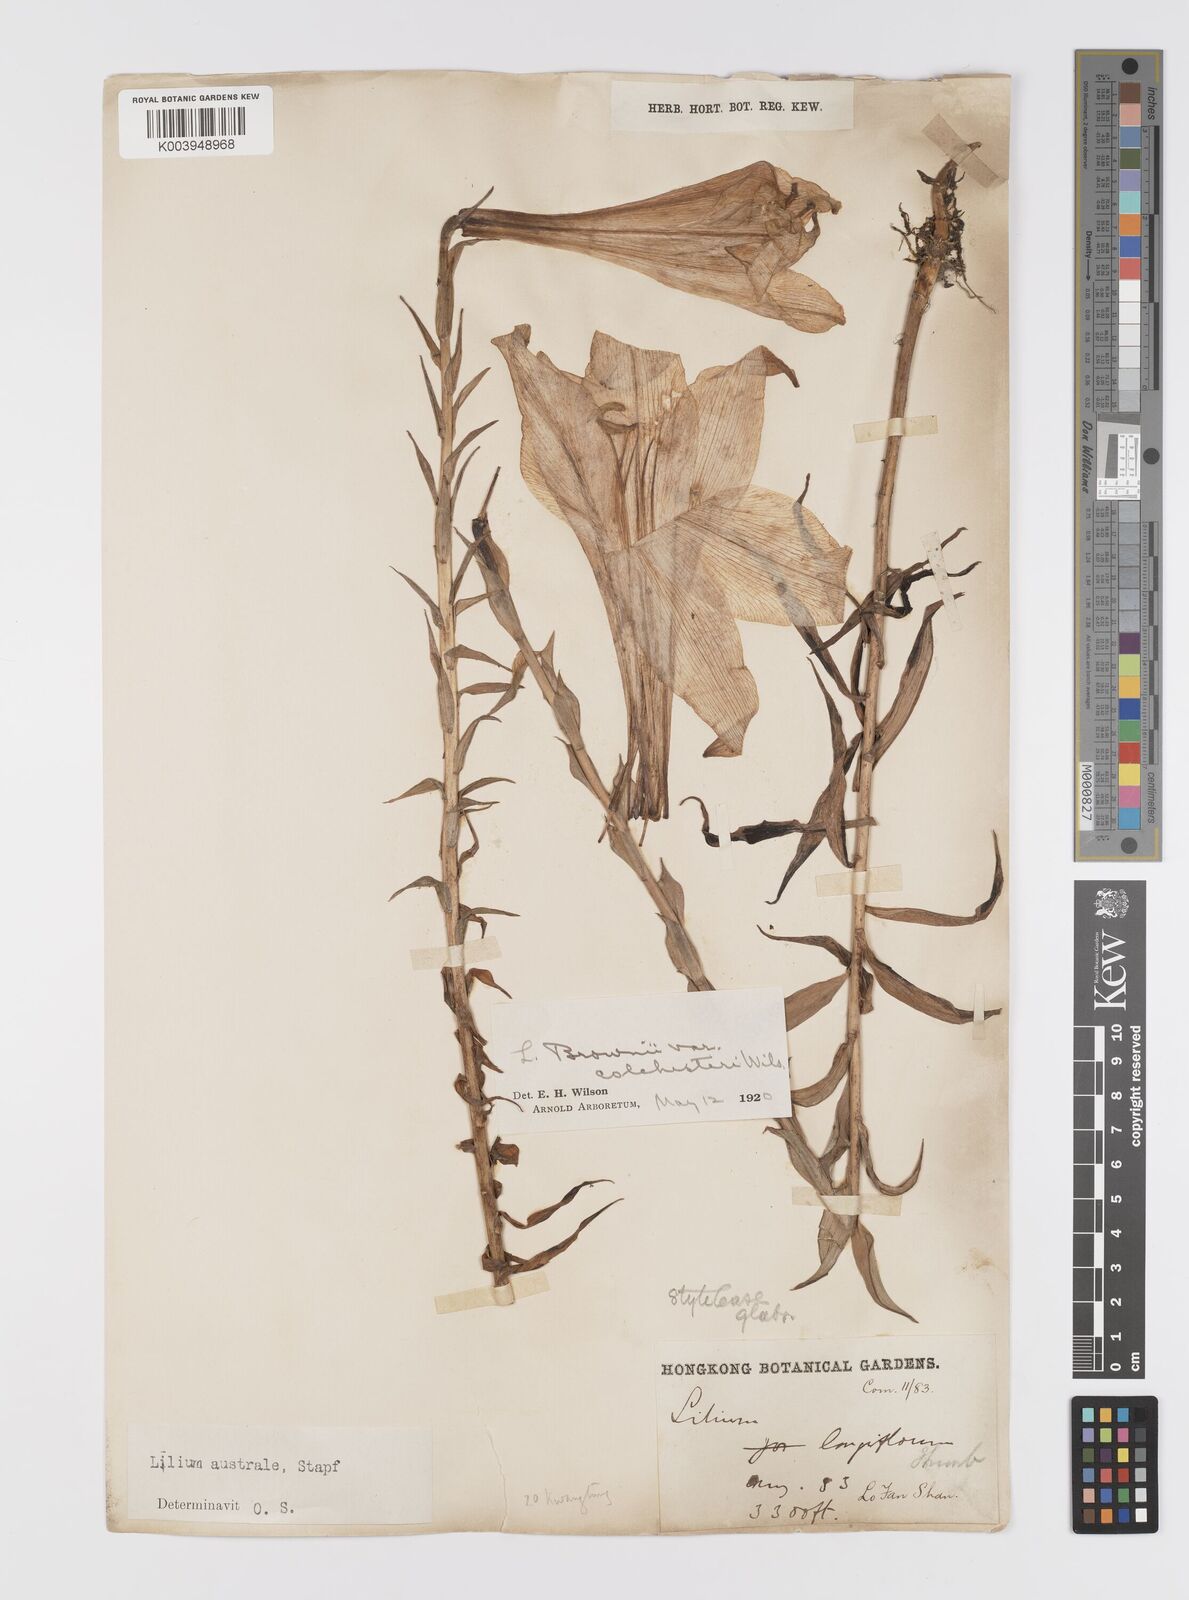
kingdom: Plantae
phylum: Tracheophyta
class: Liliopsida
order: Liliales
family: Liliaceae
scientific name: Liliaceae
